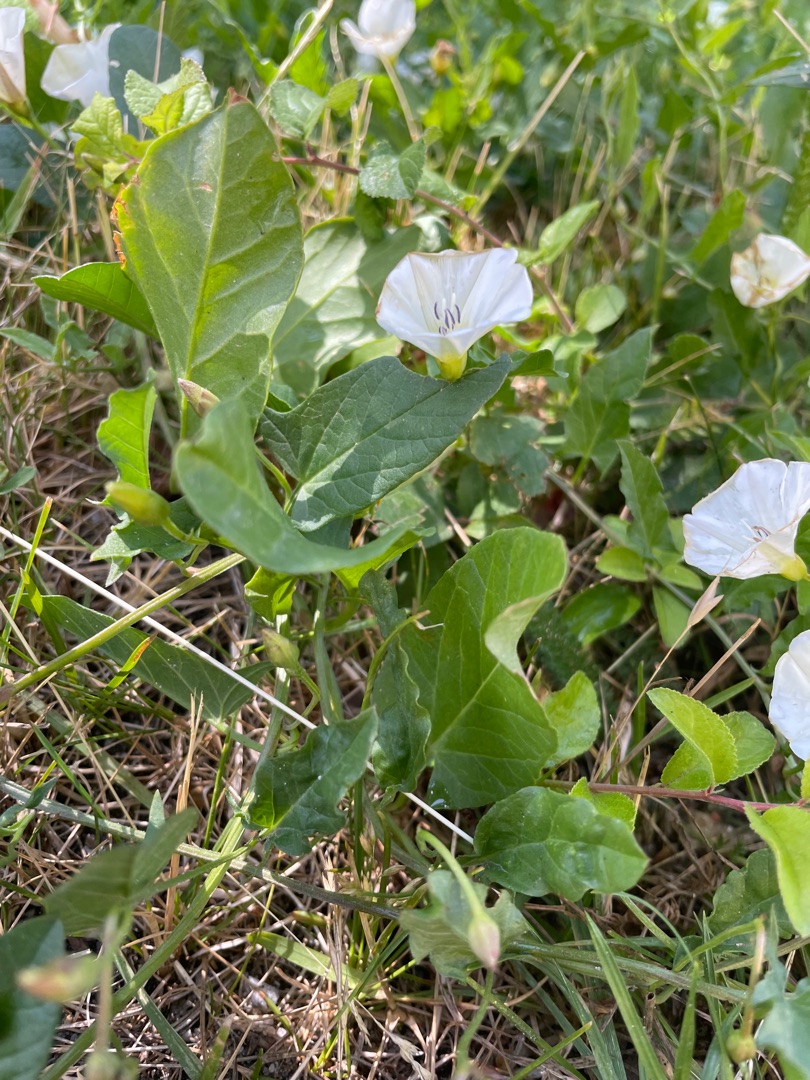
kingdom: Plantae
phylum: Tracheophyta
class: Magnoliopsida
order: Solanales
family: Convolvulaceae
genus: Convolvulus
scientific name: Convolvulus arvensis
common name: Ager-snerle
